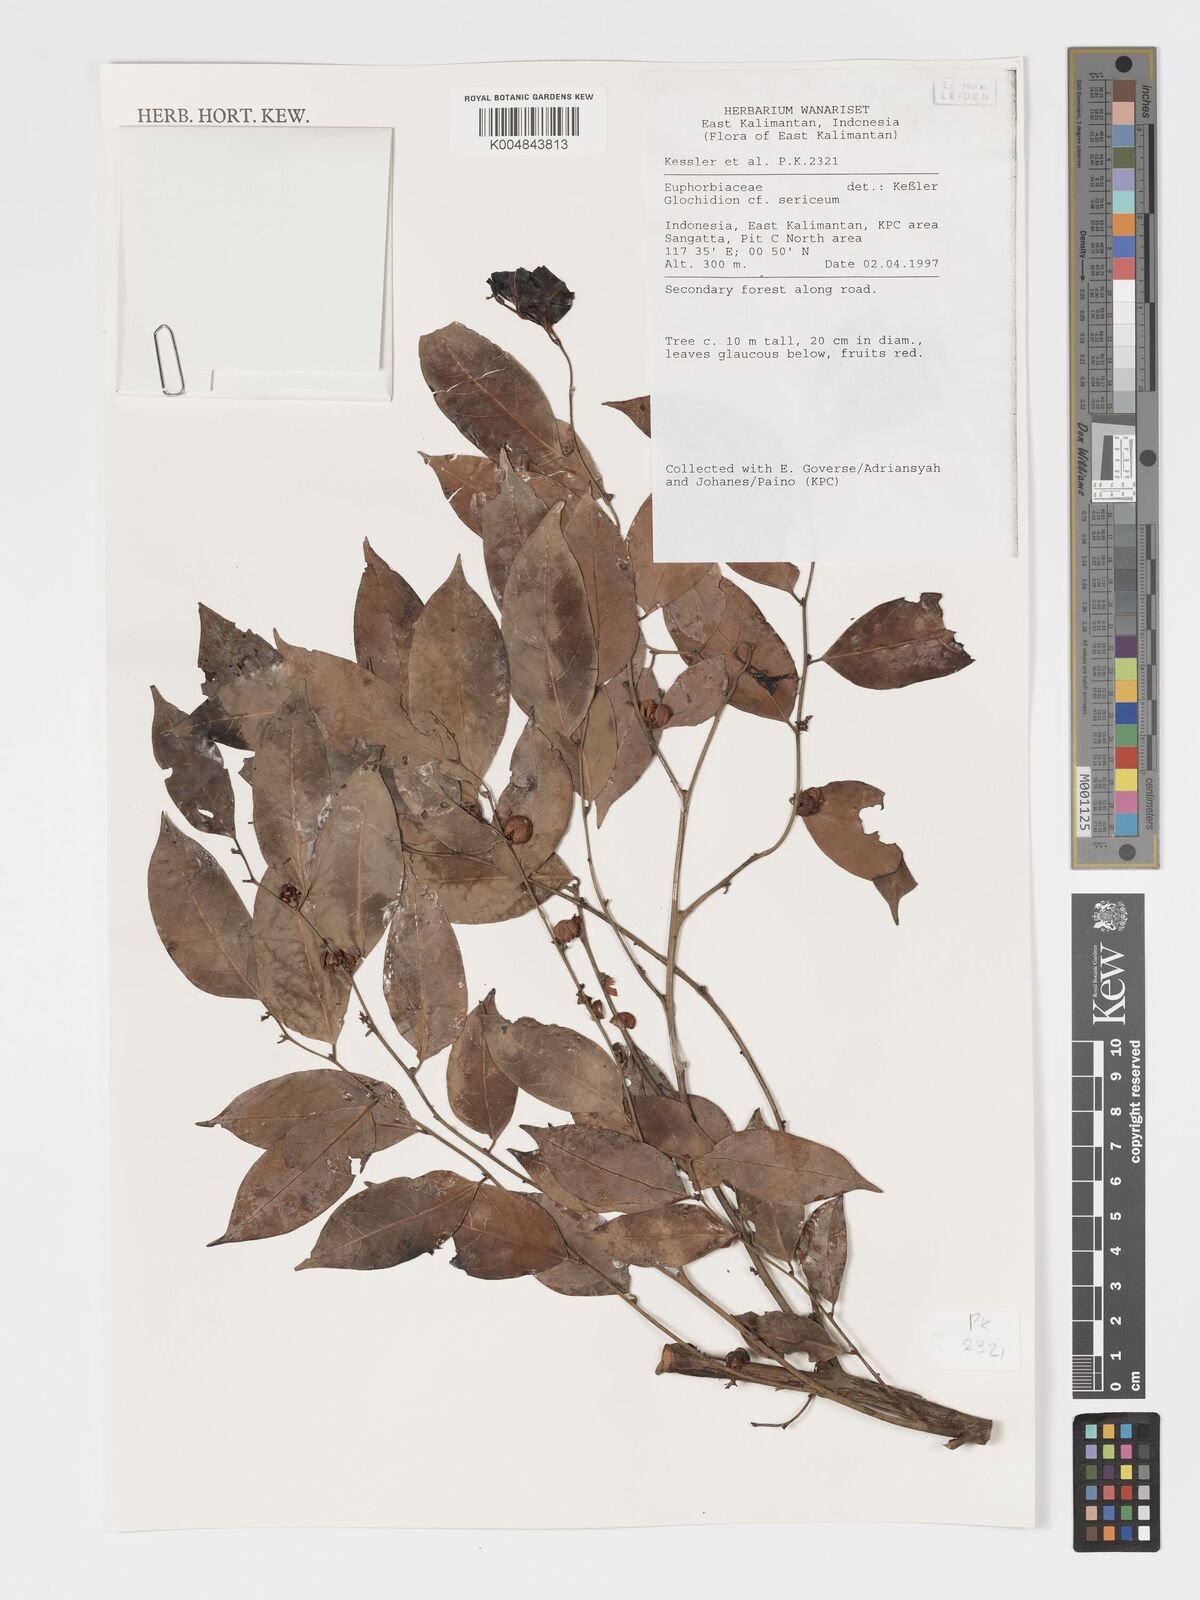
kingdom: Plantae
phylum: Tracheophyta
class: Magnoliopsida
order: Malpighiales
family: Phyllanthaceae
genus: Glochidion
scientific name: Glochidion sericeum
